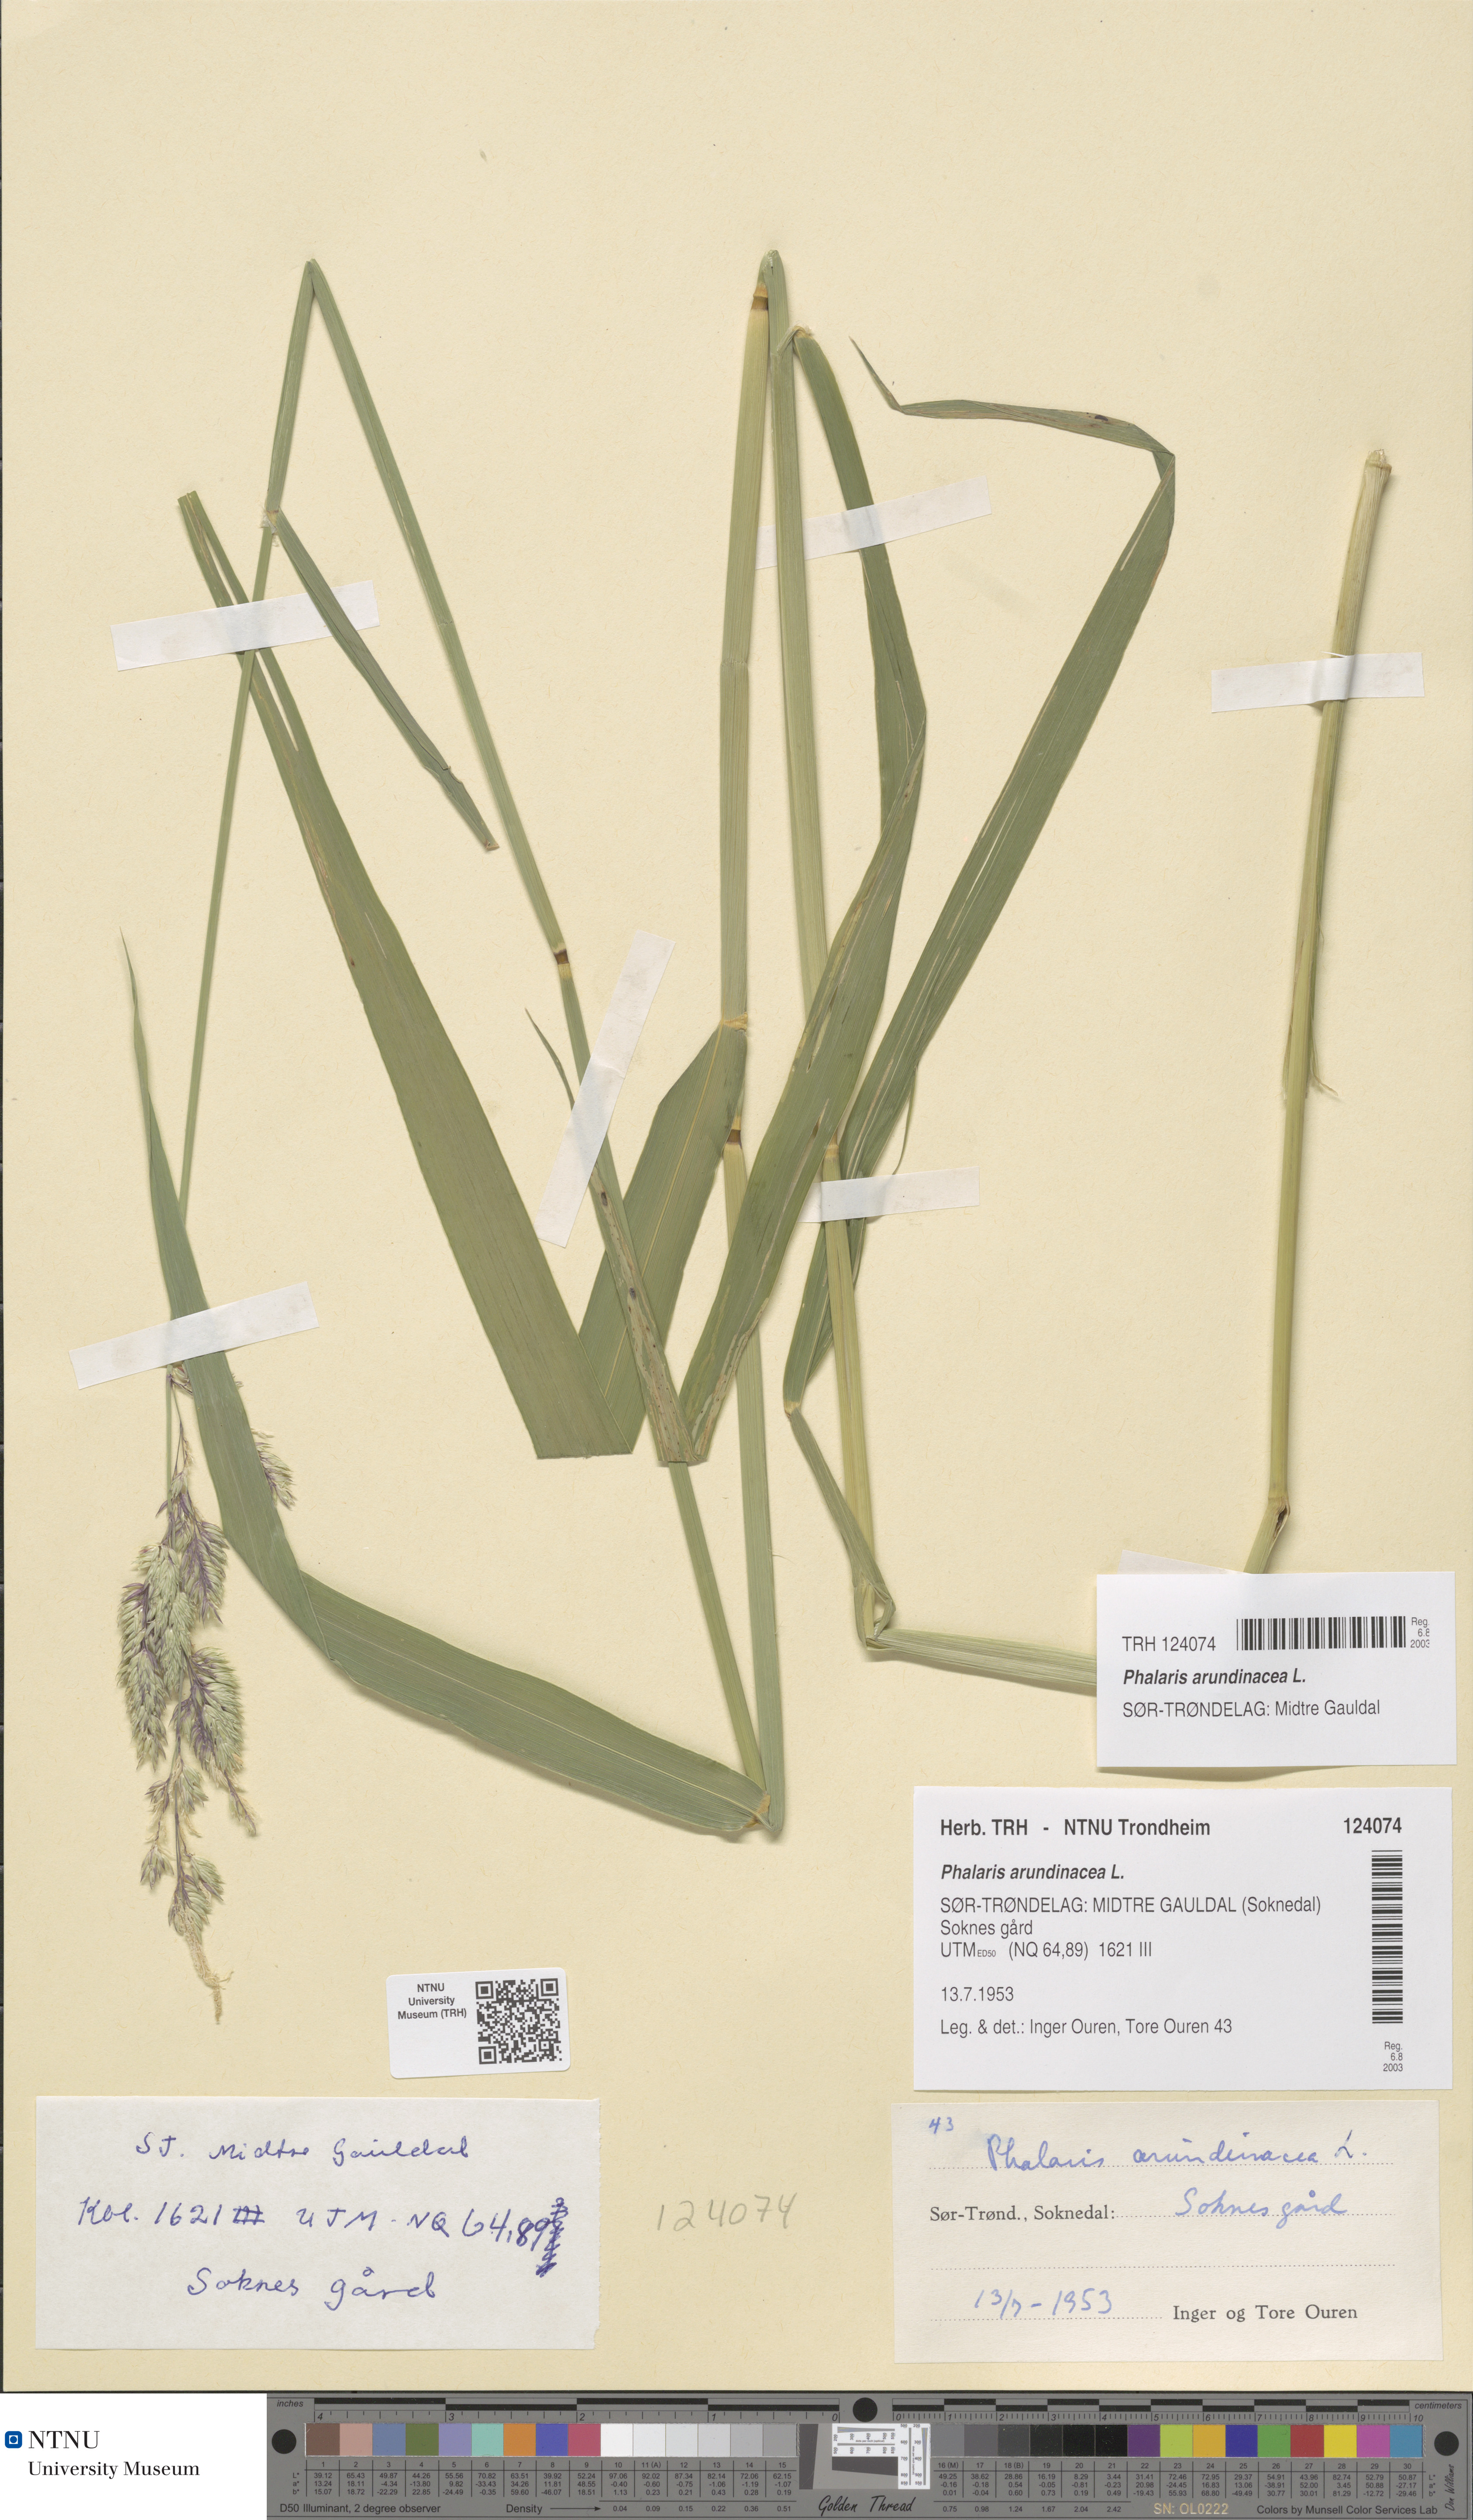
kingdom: Plantae
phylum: Tracheophyta
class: Liliopsida
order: Poales
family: Poaceae
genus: Phalaris
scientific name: Phalaris arundinacea
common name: Reed canary-grass
